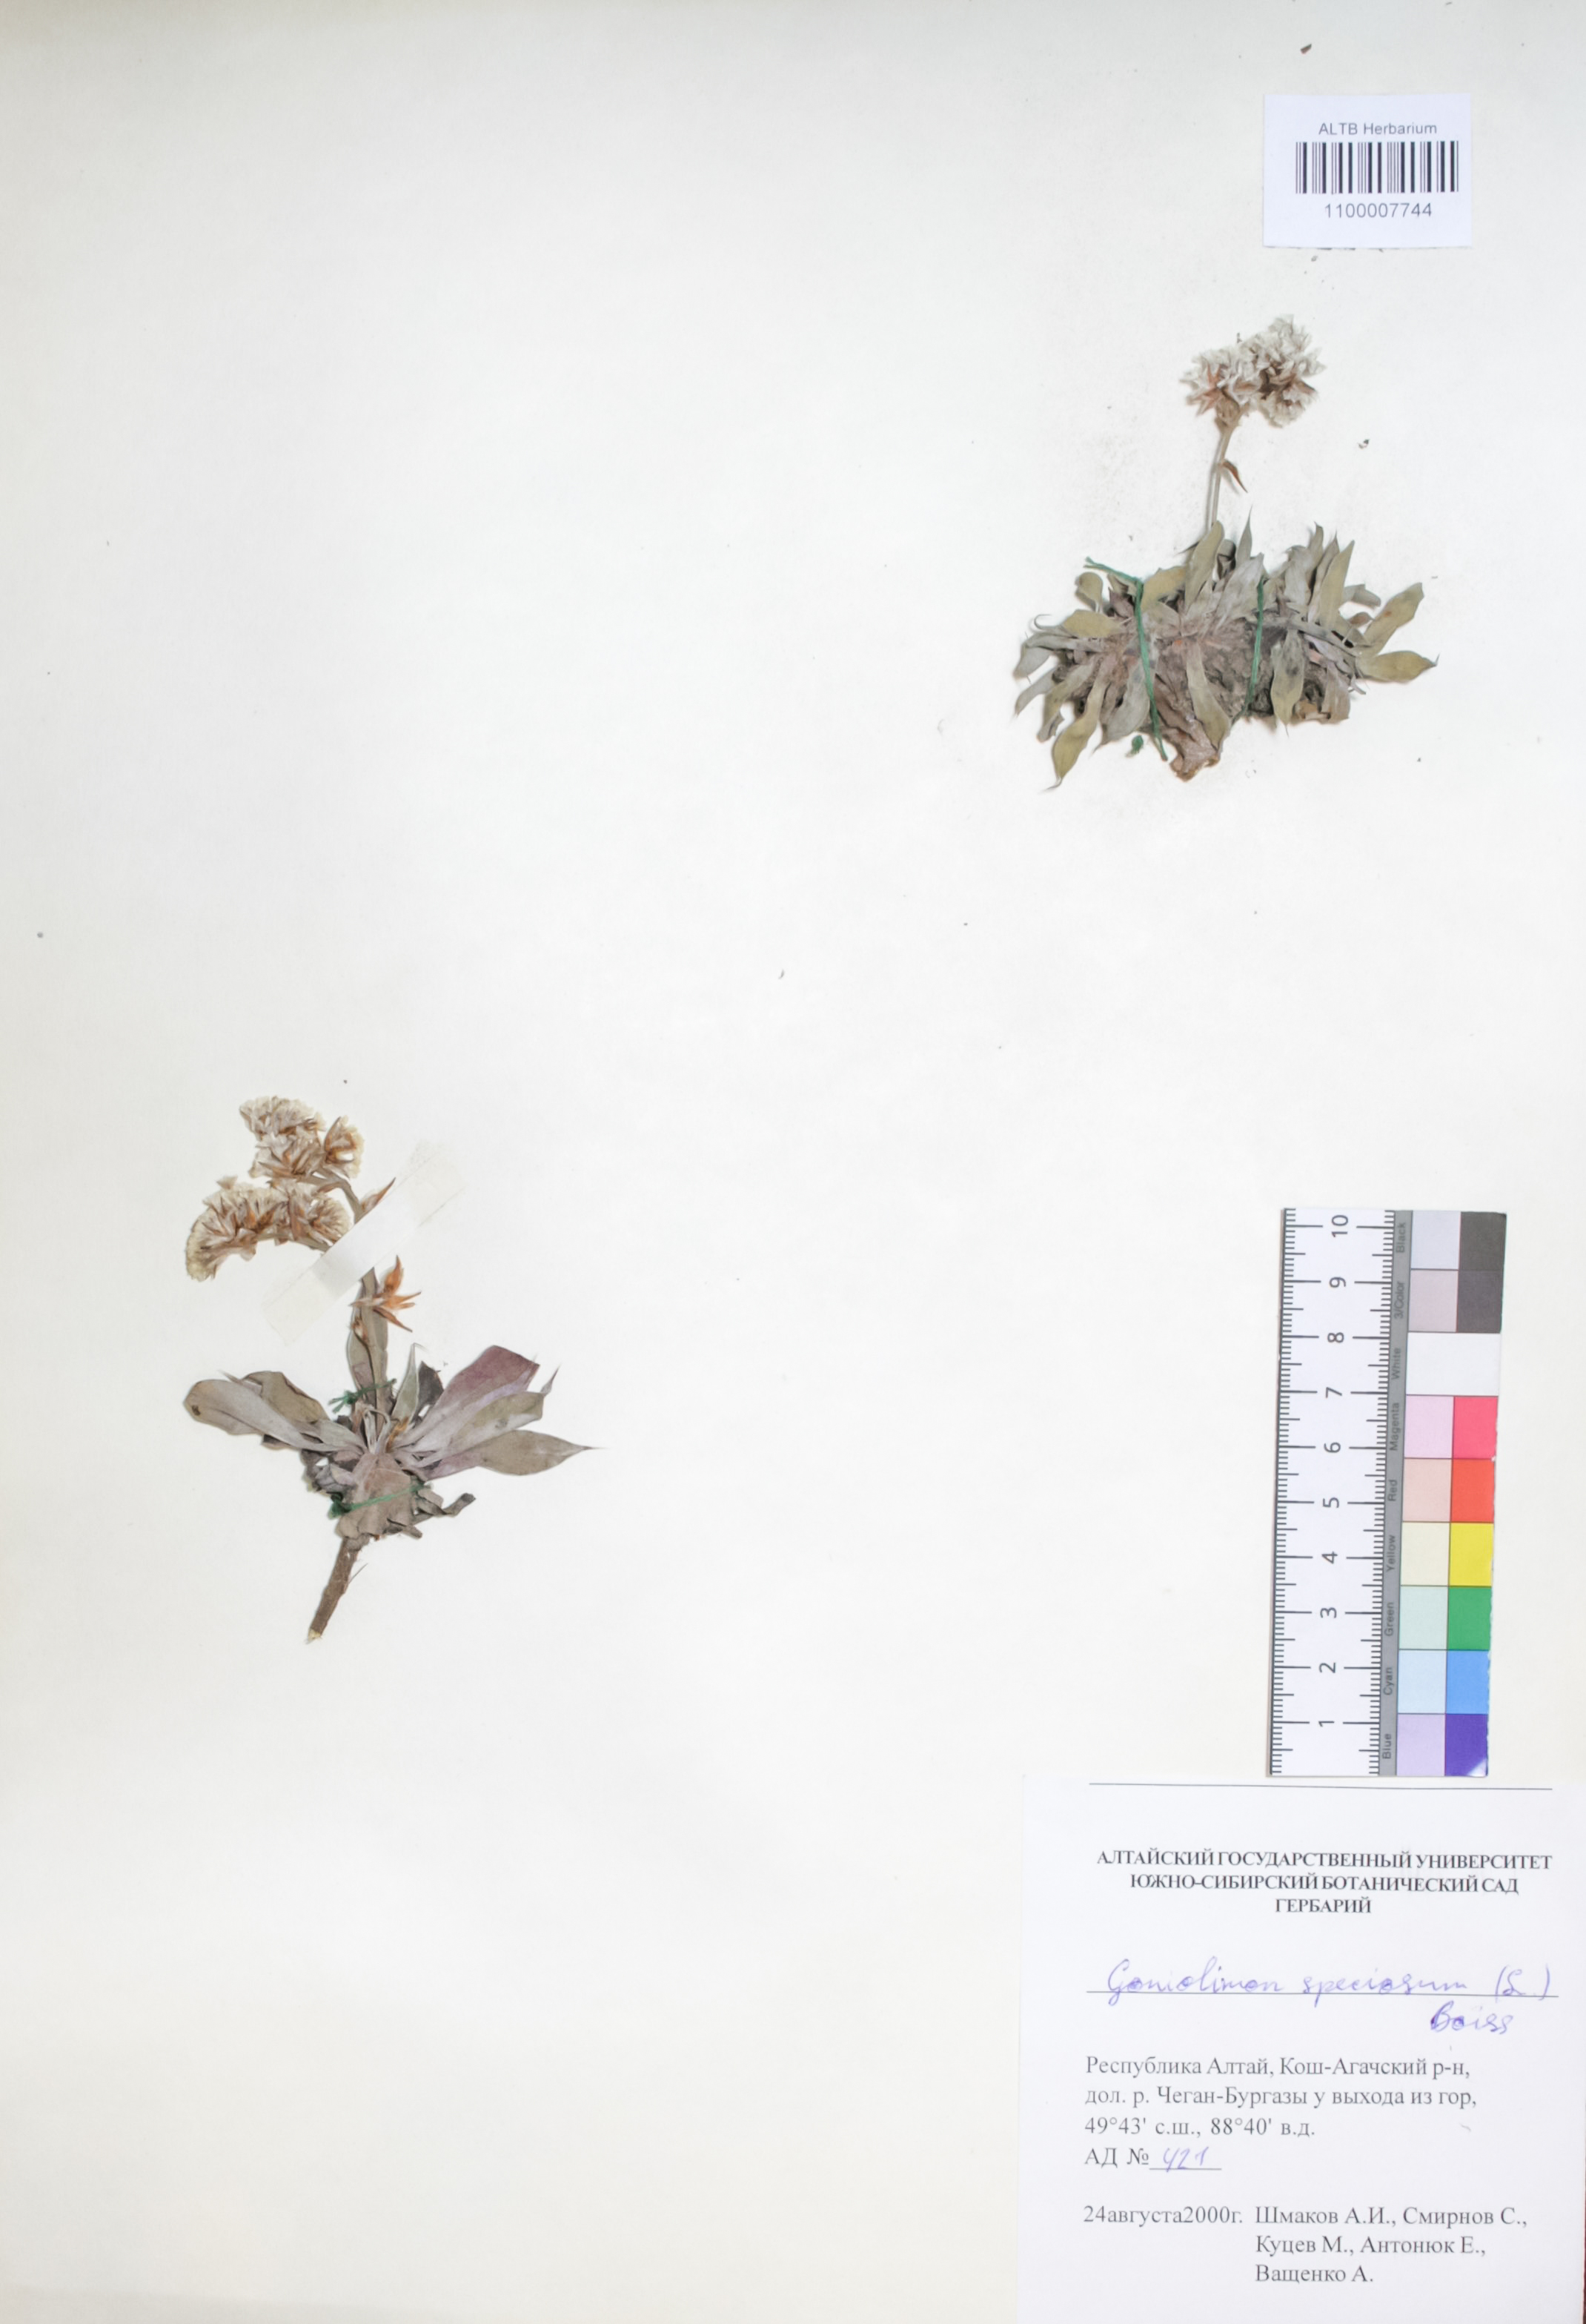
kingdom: Plantae
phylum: Tracheophyta
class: Magnoliopsida
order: Caryophyllales
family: Plumbaginaceae
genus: Goniolimon
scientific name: Goniolimon speciosum
